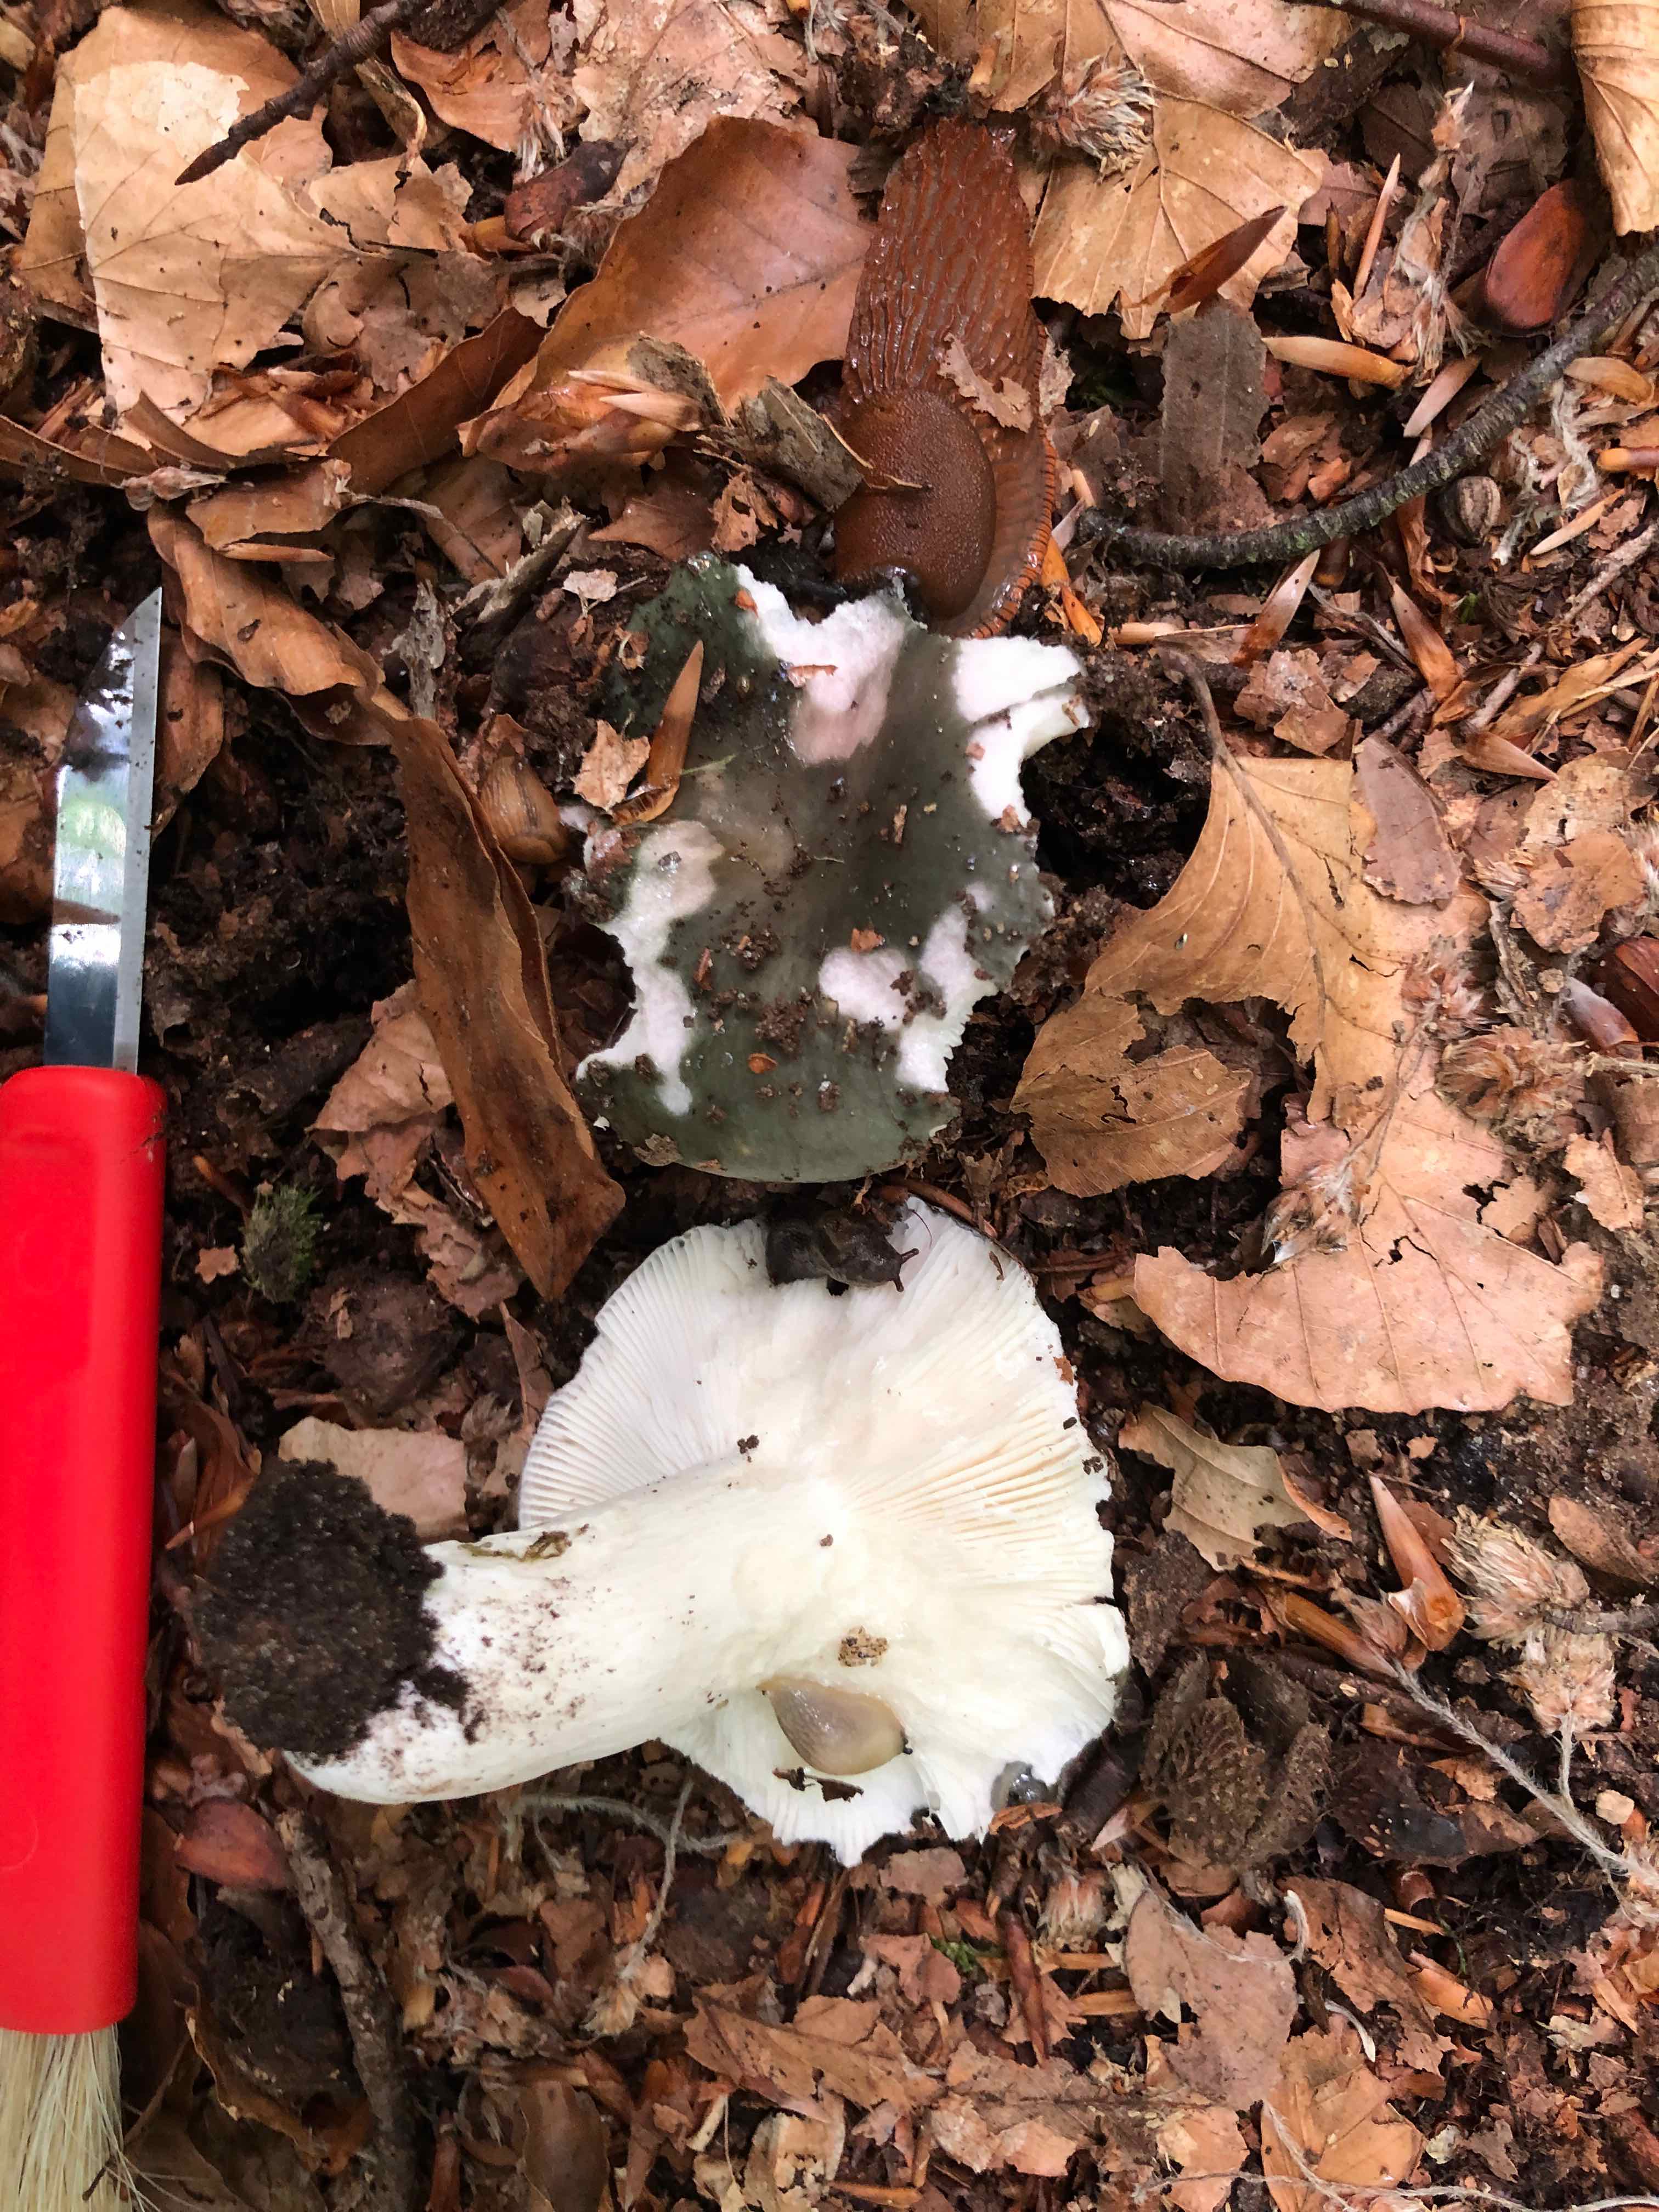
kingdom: Fungi
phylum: Basidiomycota
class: Agaricomycetes
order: Russulales
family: Russulaceae
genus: Russula
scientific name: Russula cyanoxantha
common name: broget skørhat
